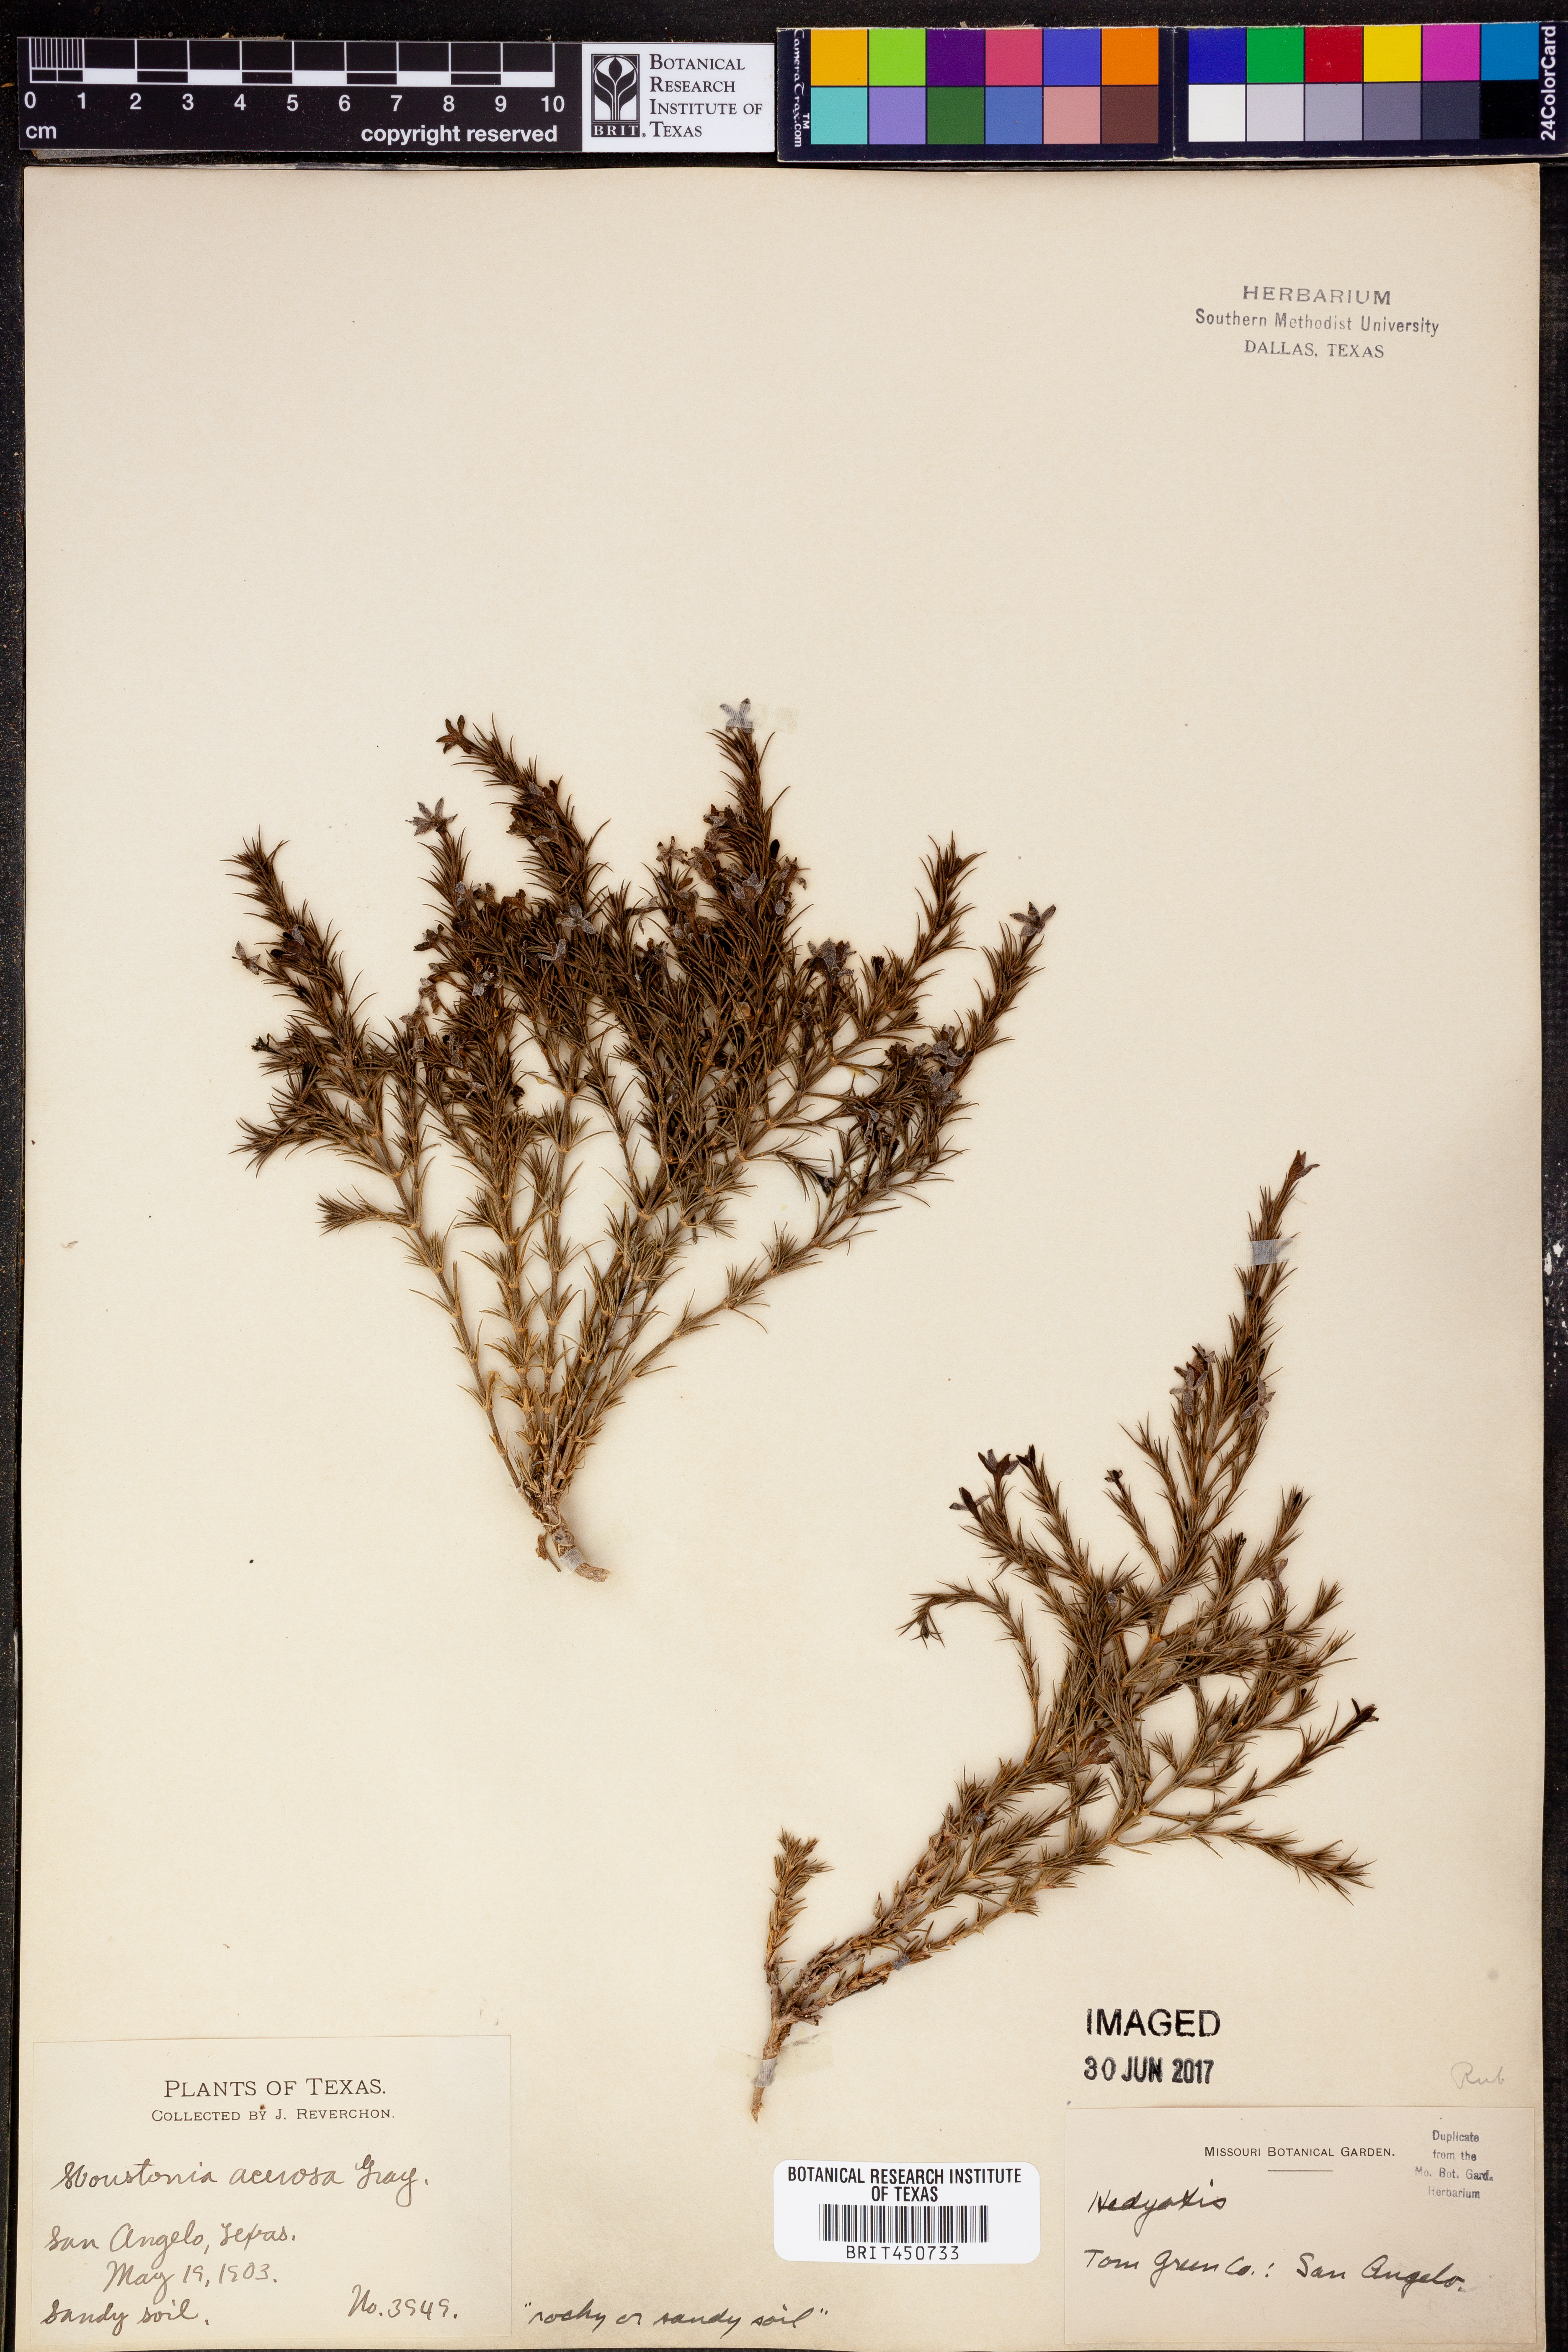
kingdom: Plantae
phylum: Tracheophyta
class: Magnoliopsida
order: Gentianales
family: Rubiaceae
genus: Houstonia
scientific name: Houstonia acerosa
